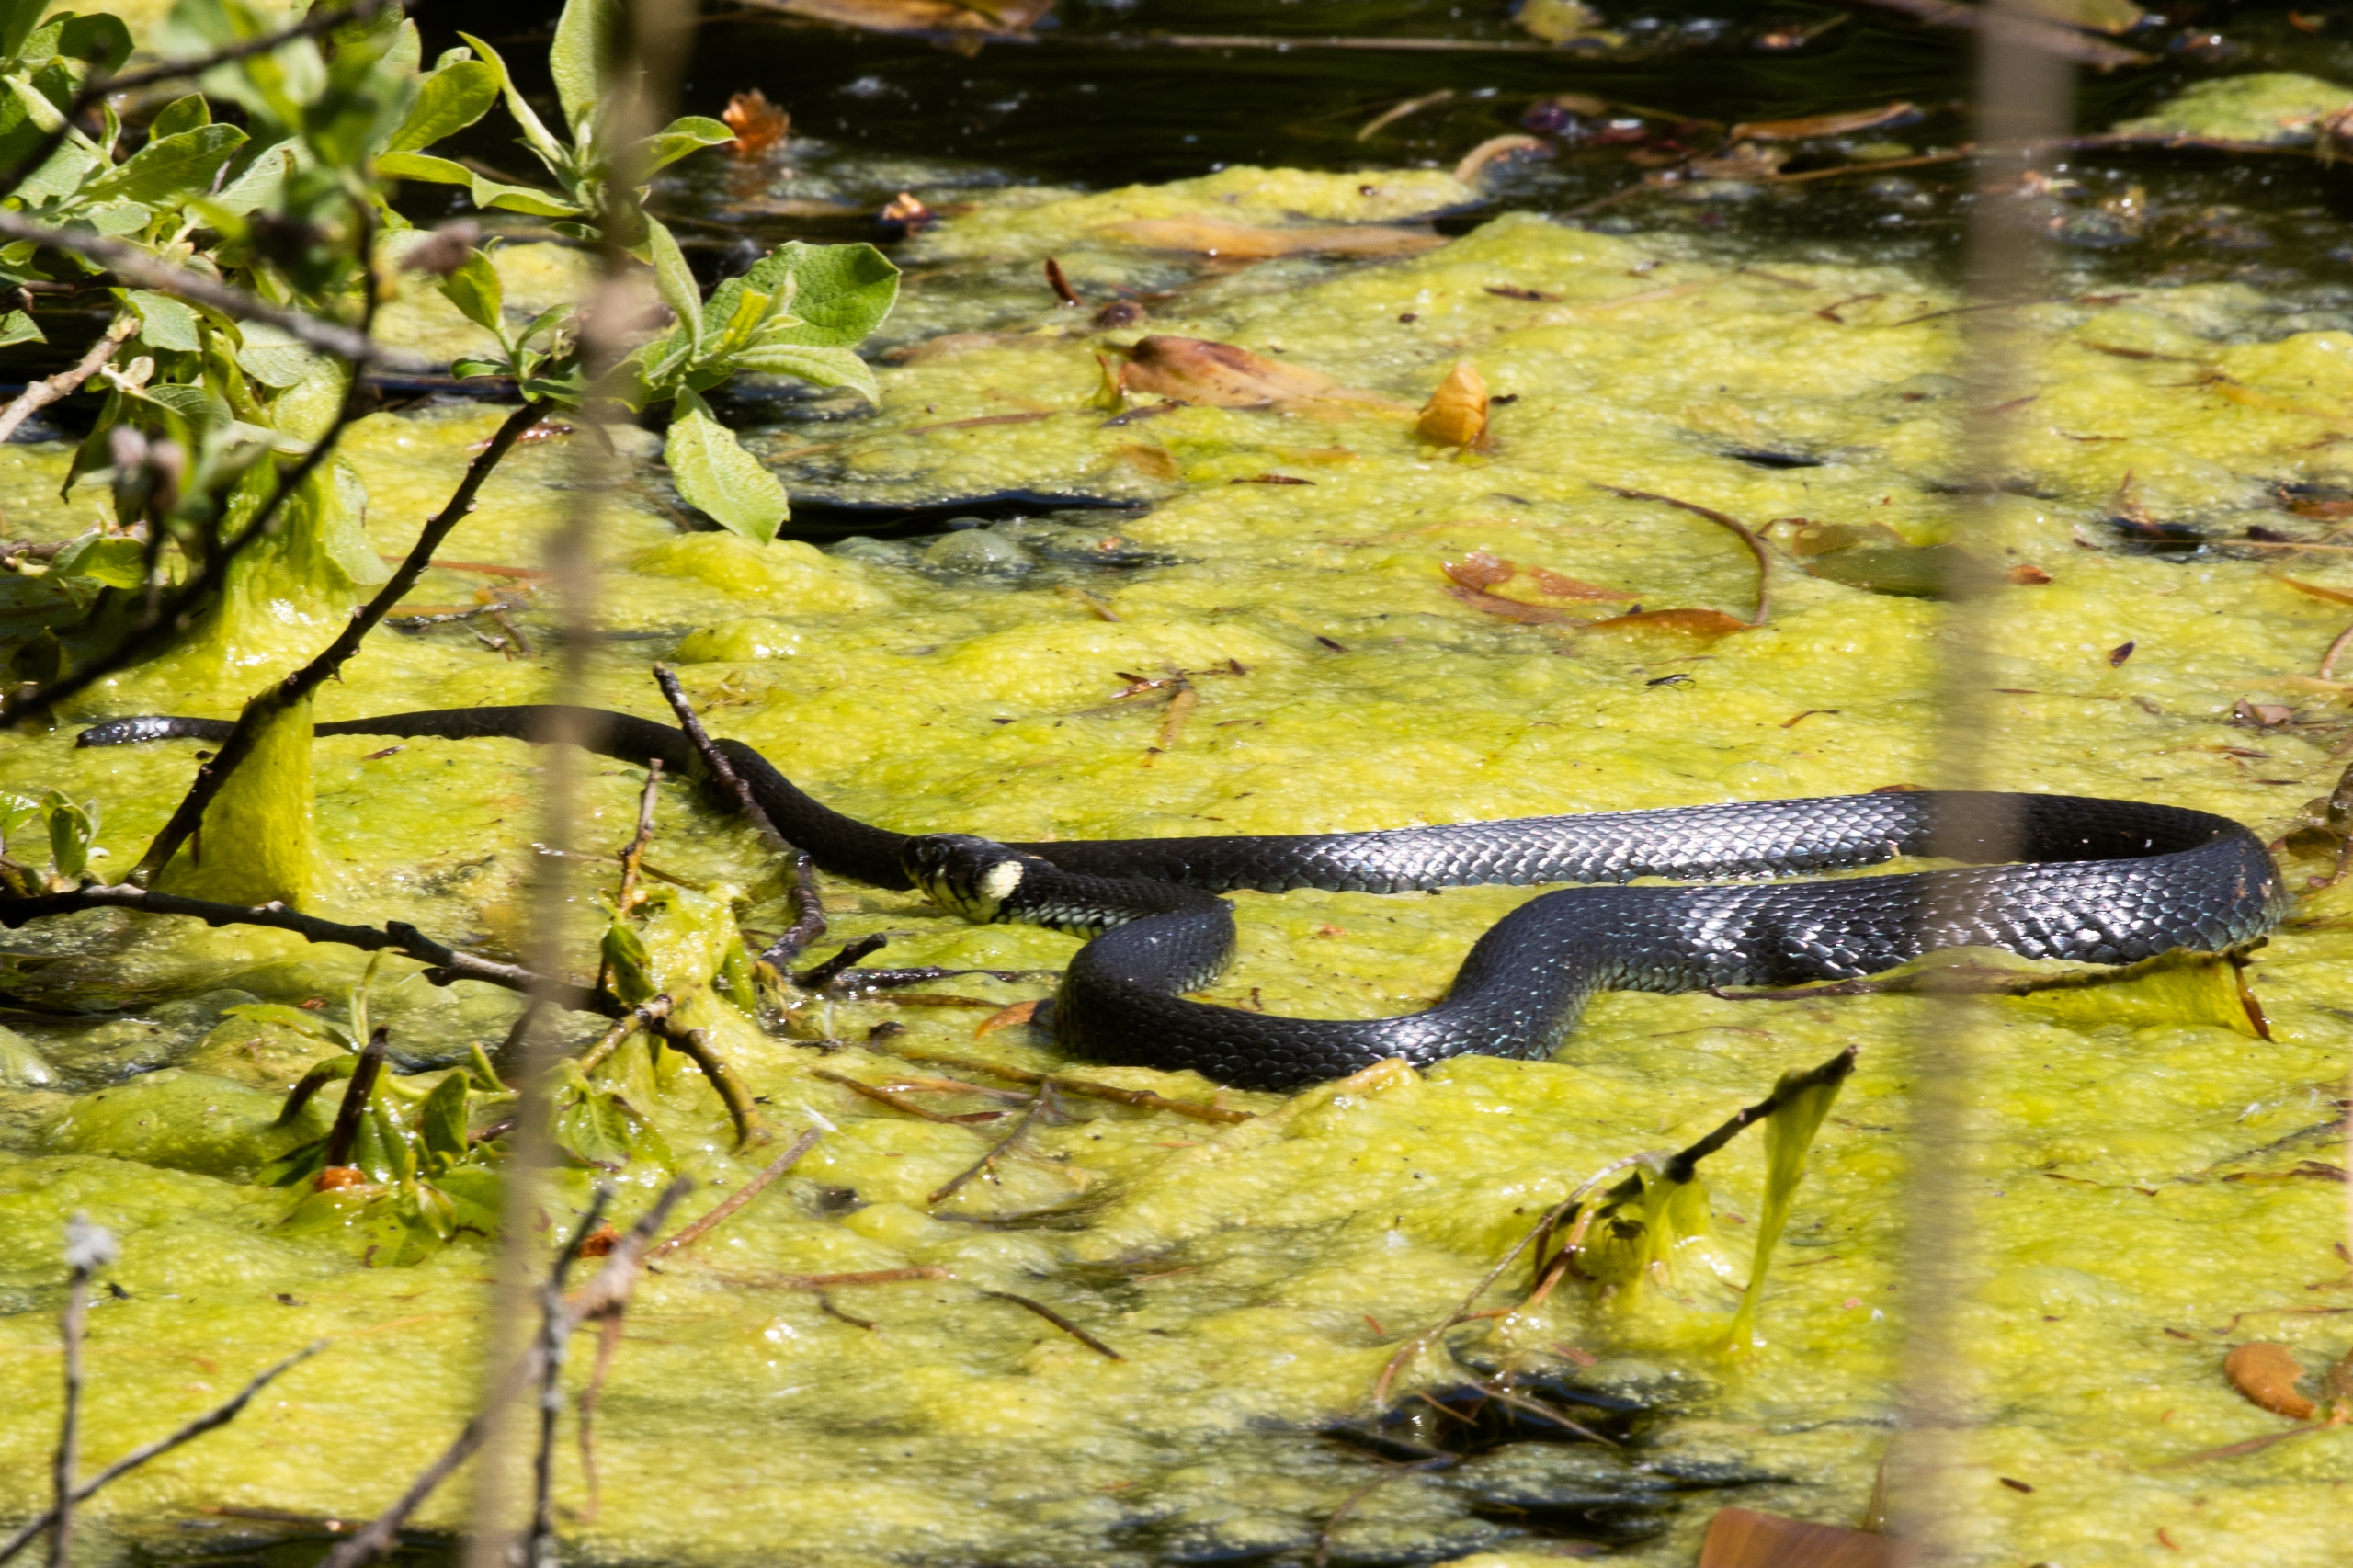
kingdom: Animalia
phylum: Chordata
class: Squamata
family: Colubridae
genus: Natrix
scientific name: Natrix natrix
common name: Snog
